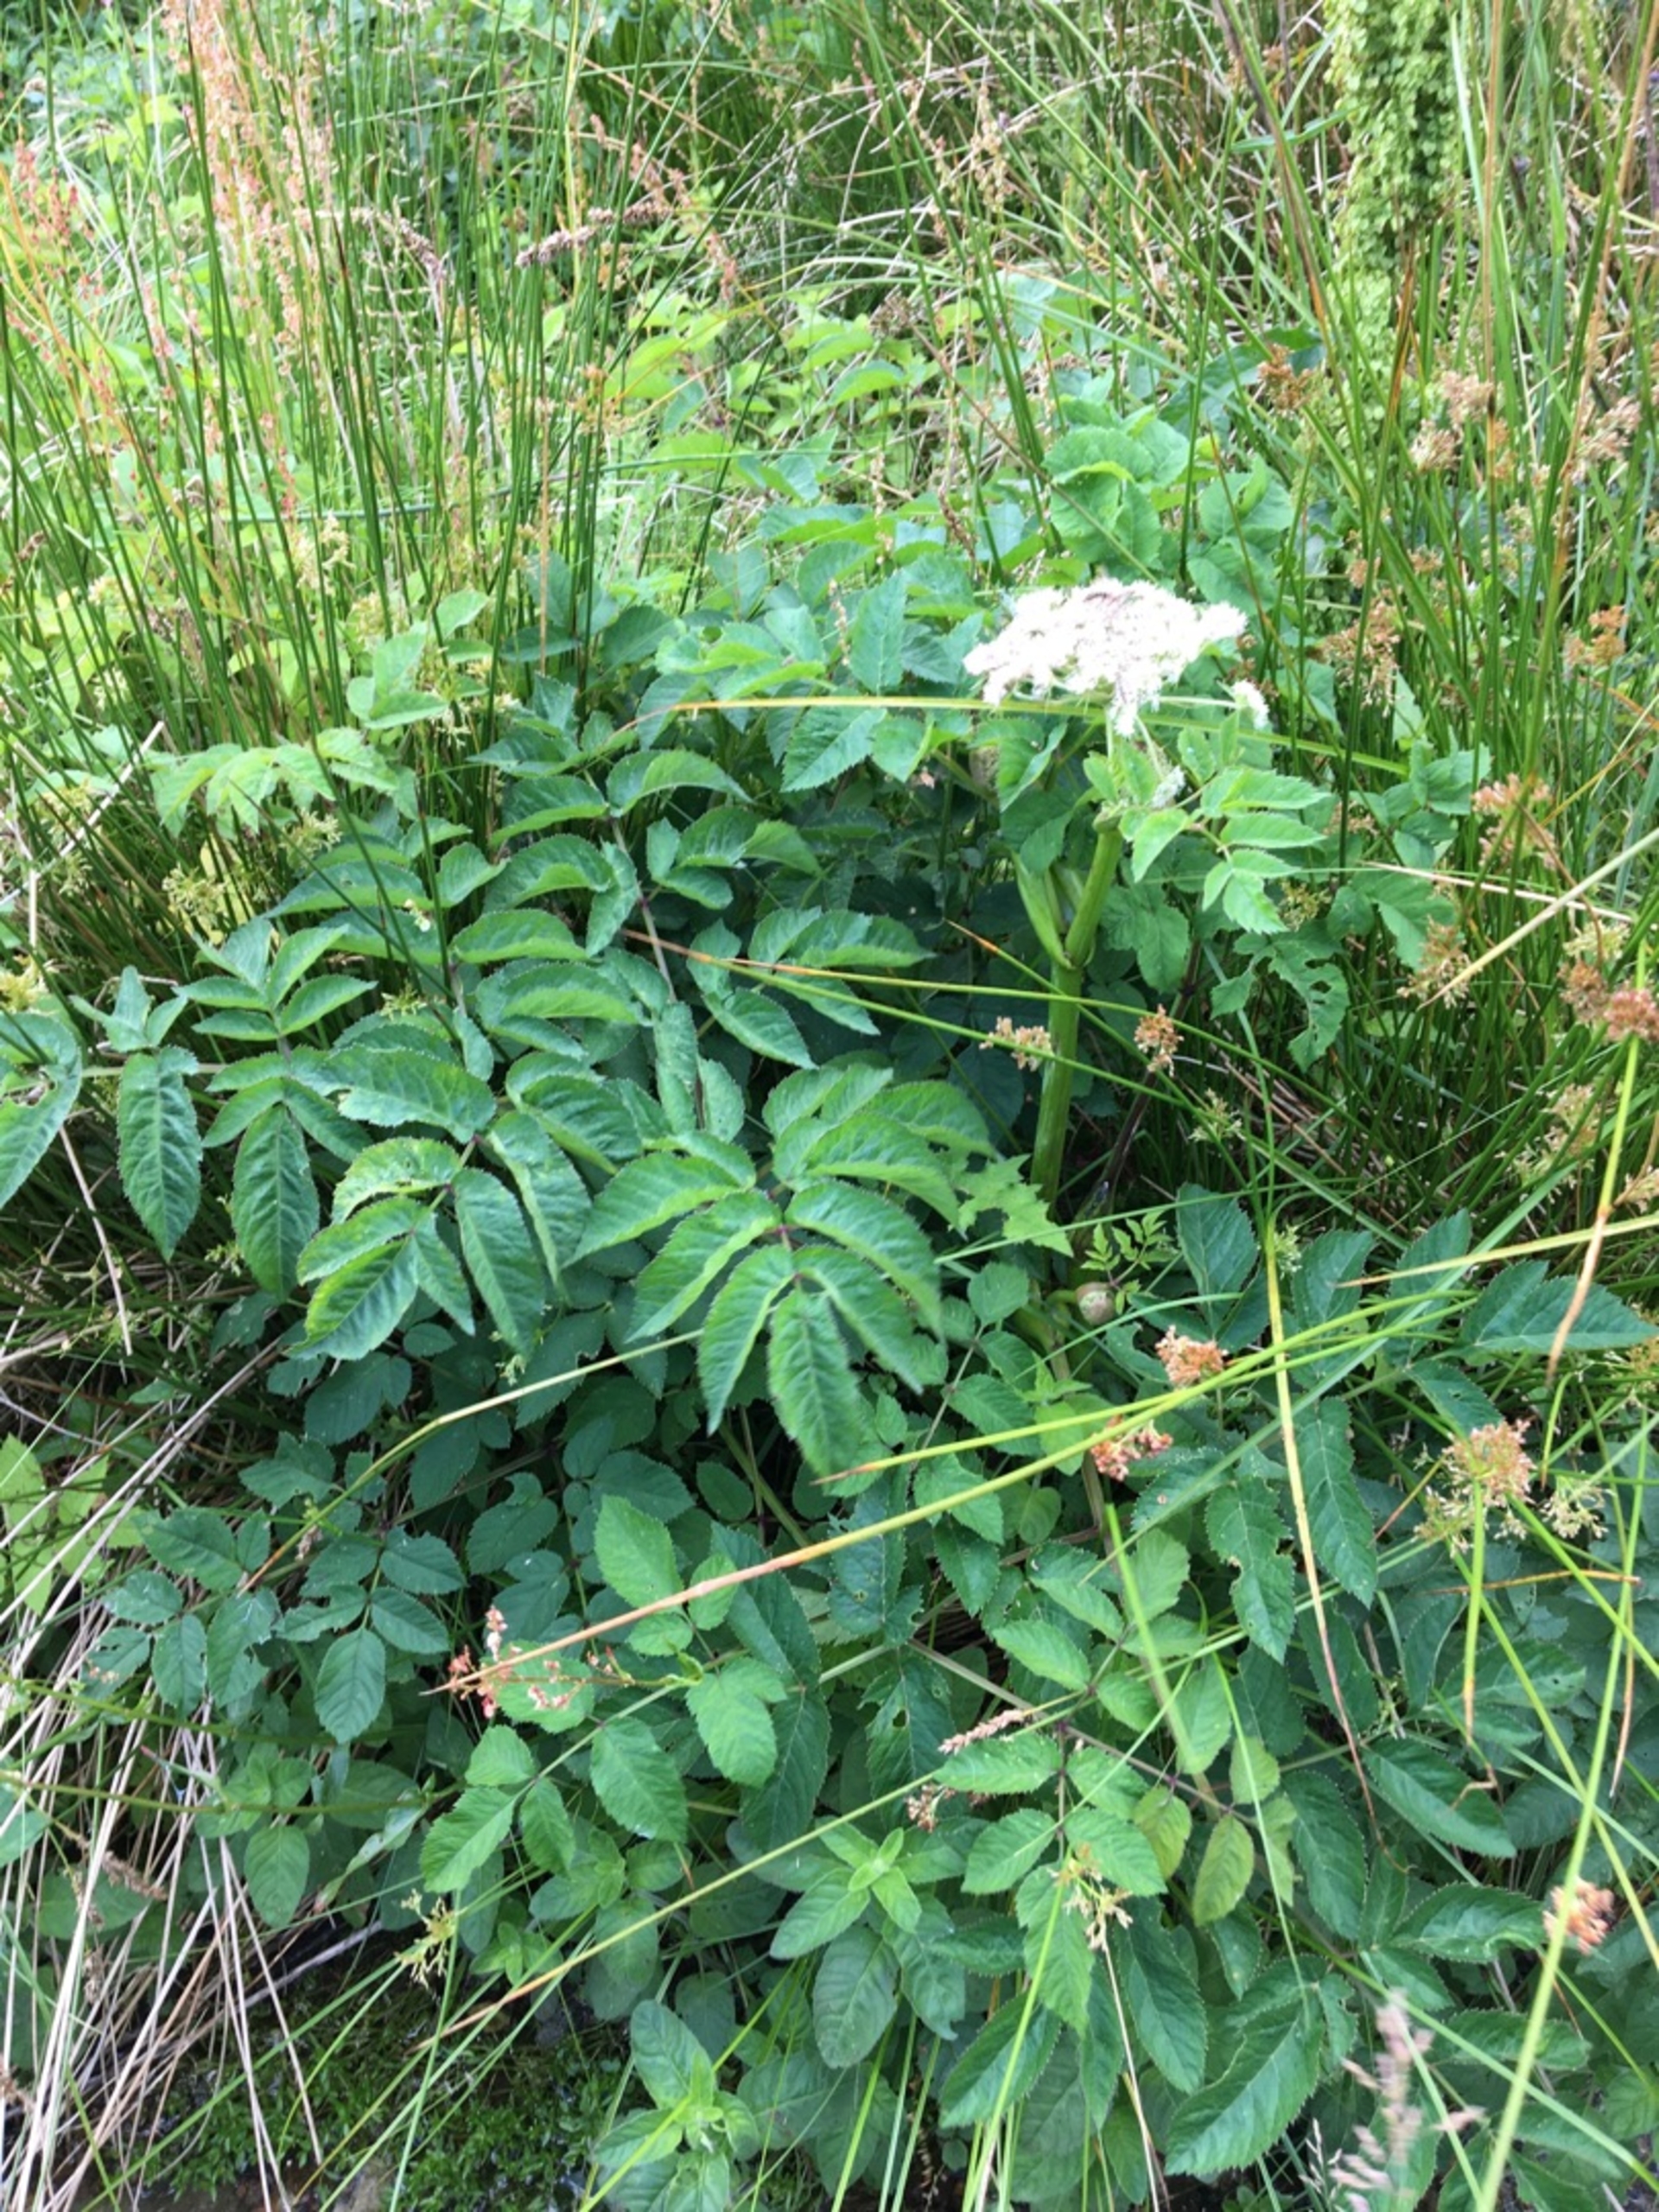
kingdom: Plantae
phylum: Tracheophyta
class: Magnoliopsida
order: Apiales
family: Apiaceae
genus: Angelica
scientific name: Angelica sylvestris
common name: Angelik
